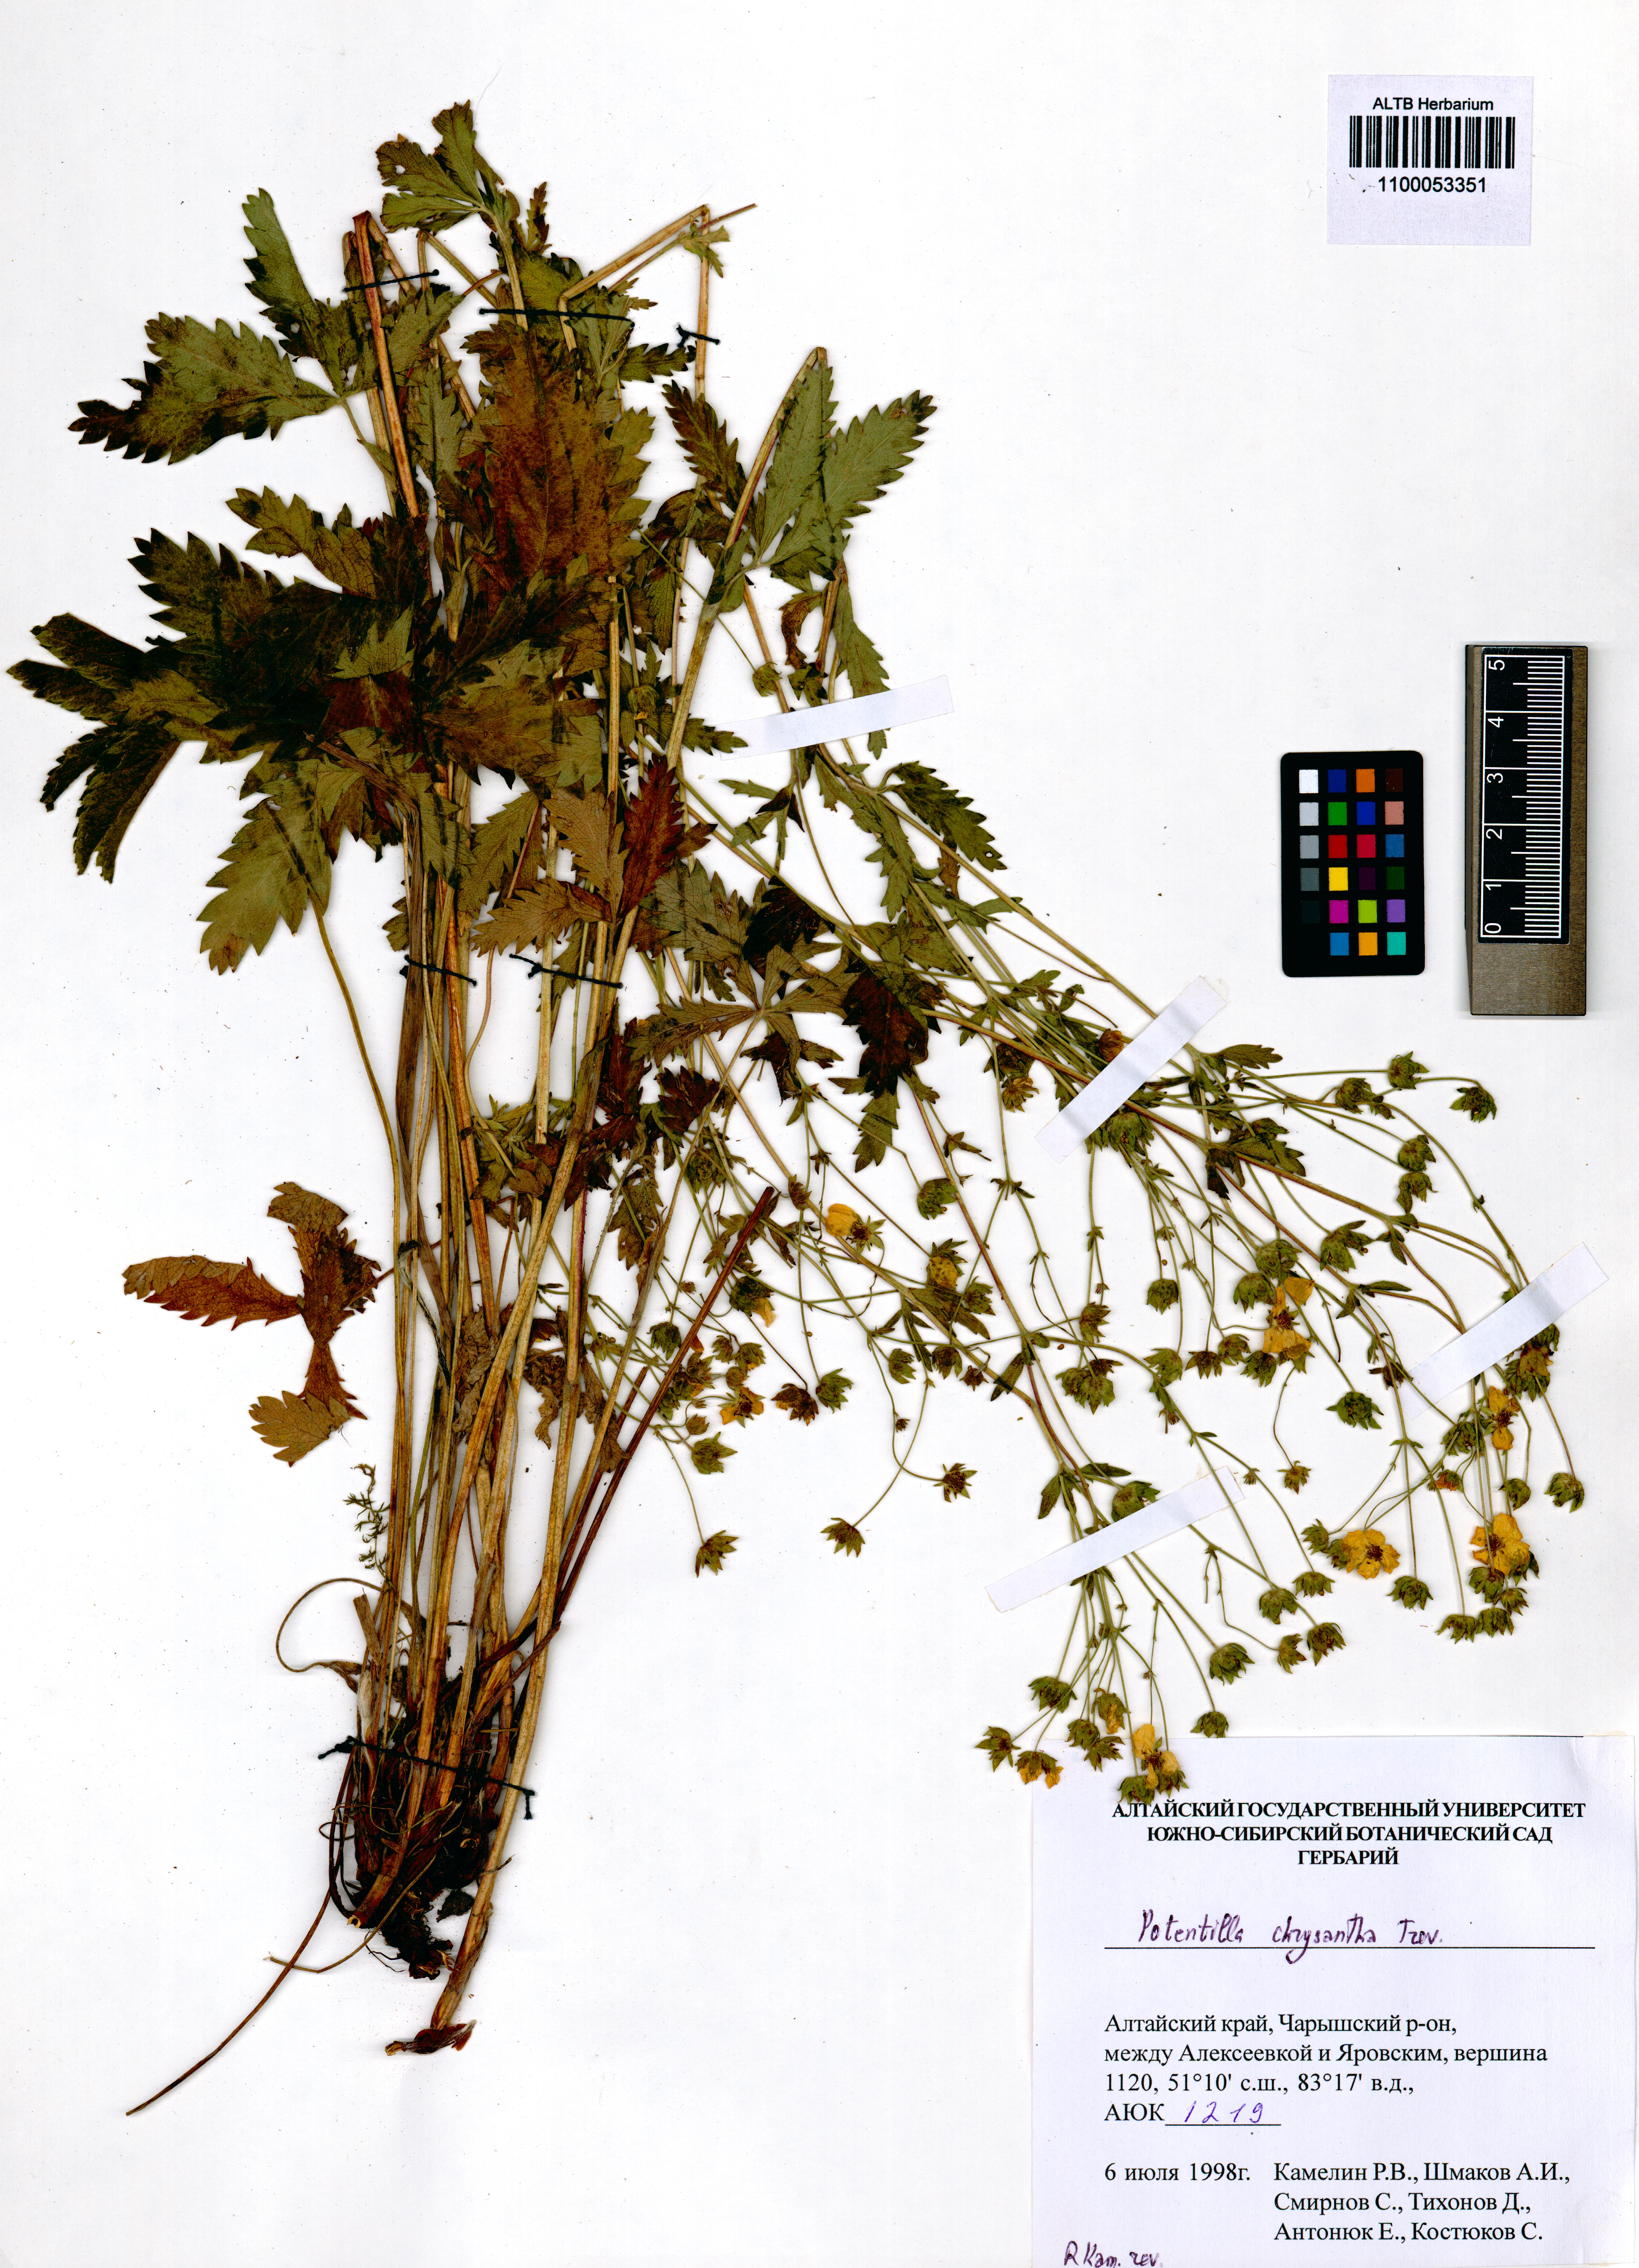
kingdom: Plantae
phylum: Tracheophyta
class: Magnoliopsida
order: Rosales
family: Rosaceae
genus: Potentilla
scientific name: Potentilla chrysantha
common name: Thuringian cinquefoil
